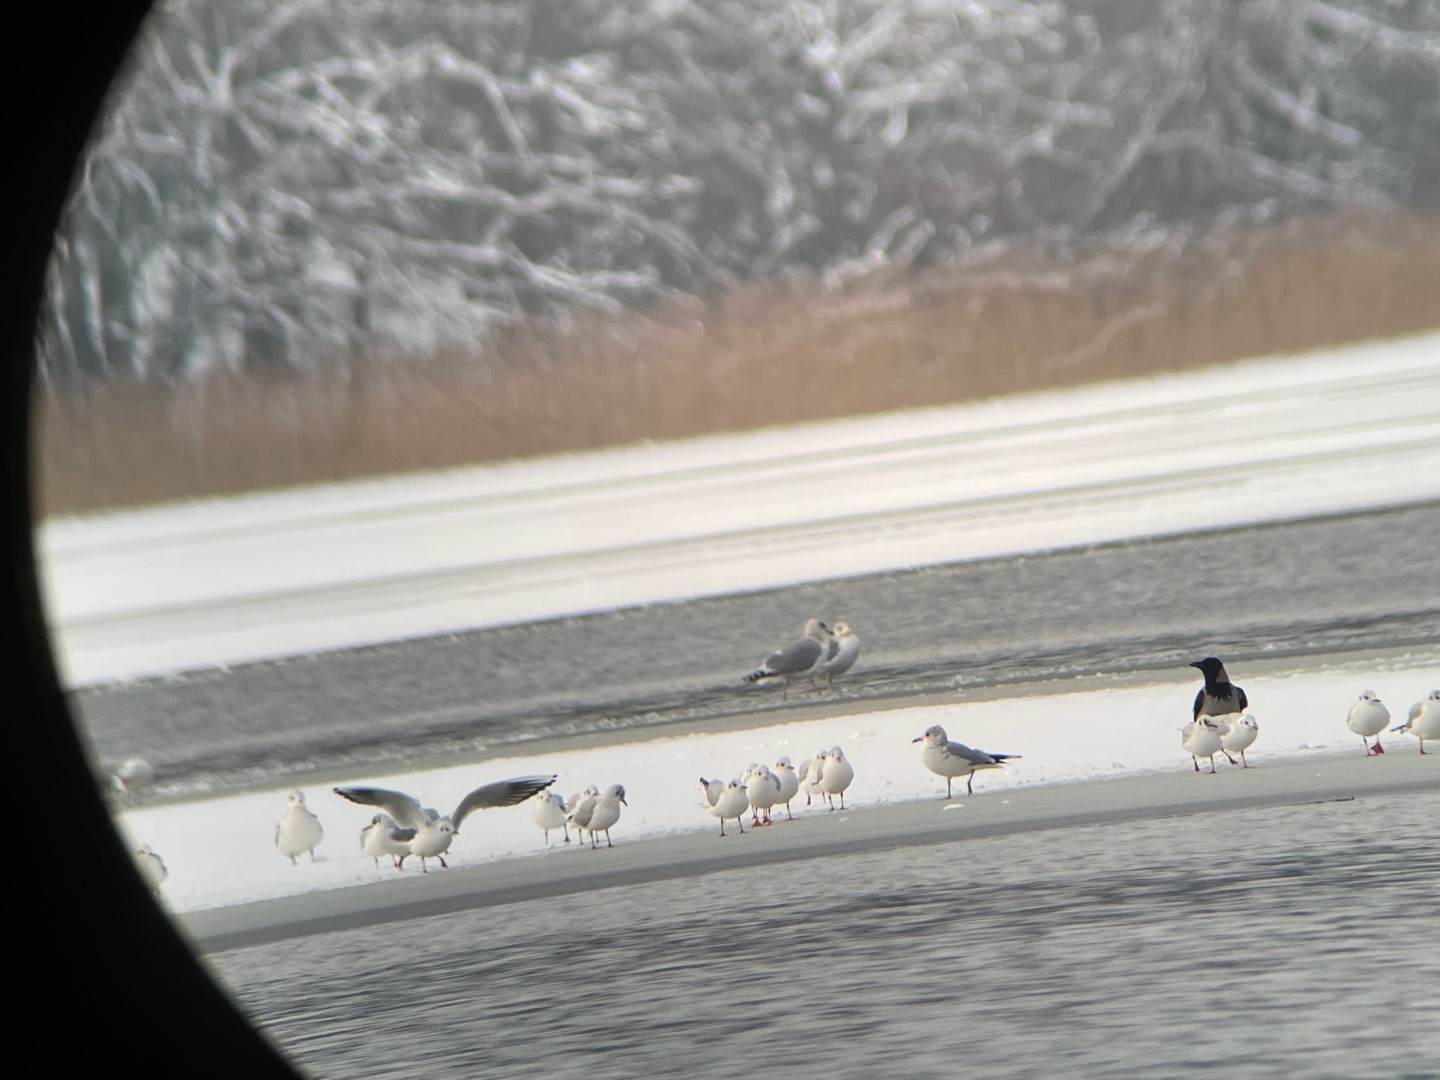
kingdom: Animalia
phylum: Chordata
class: Aves
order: Charadriiformes
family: Laridae
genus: Larus
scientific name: Larus argentatus
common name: Sølvmåge
